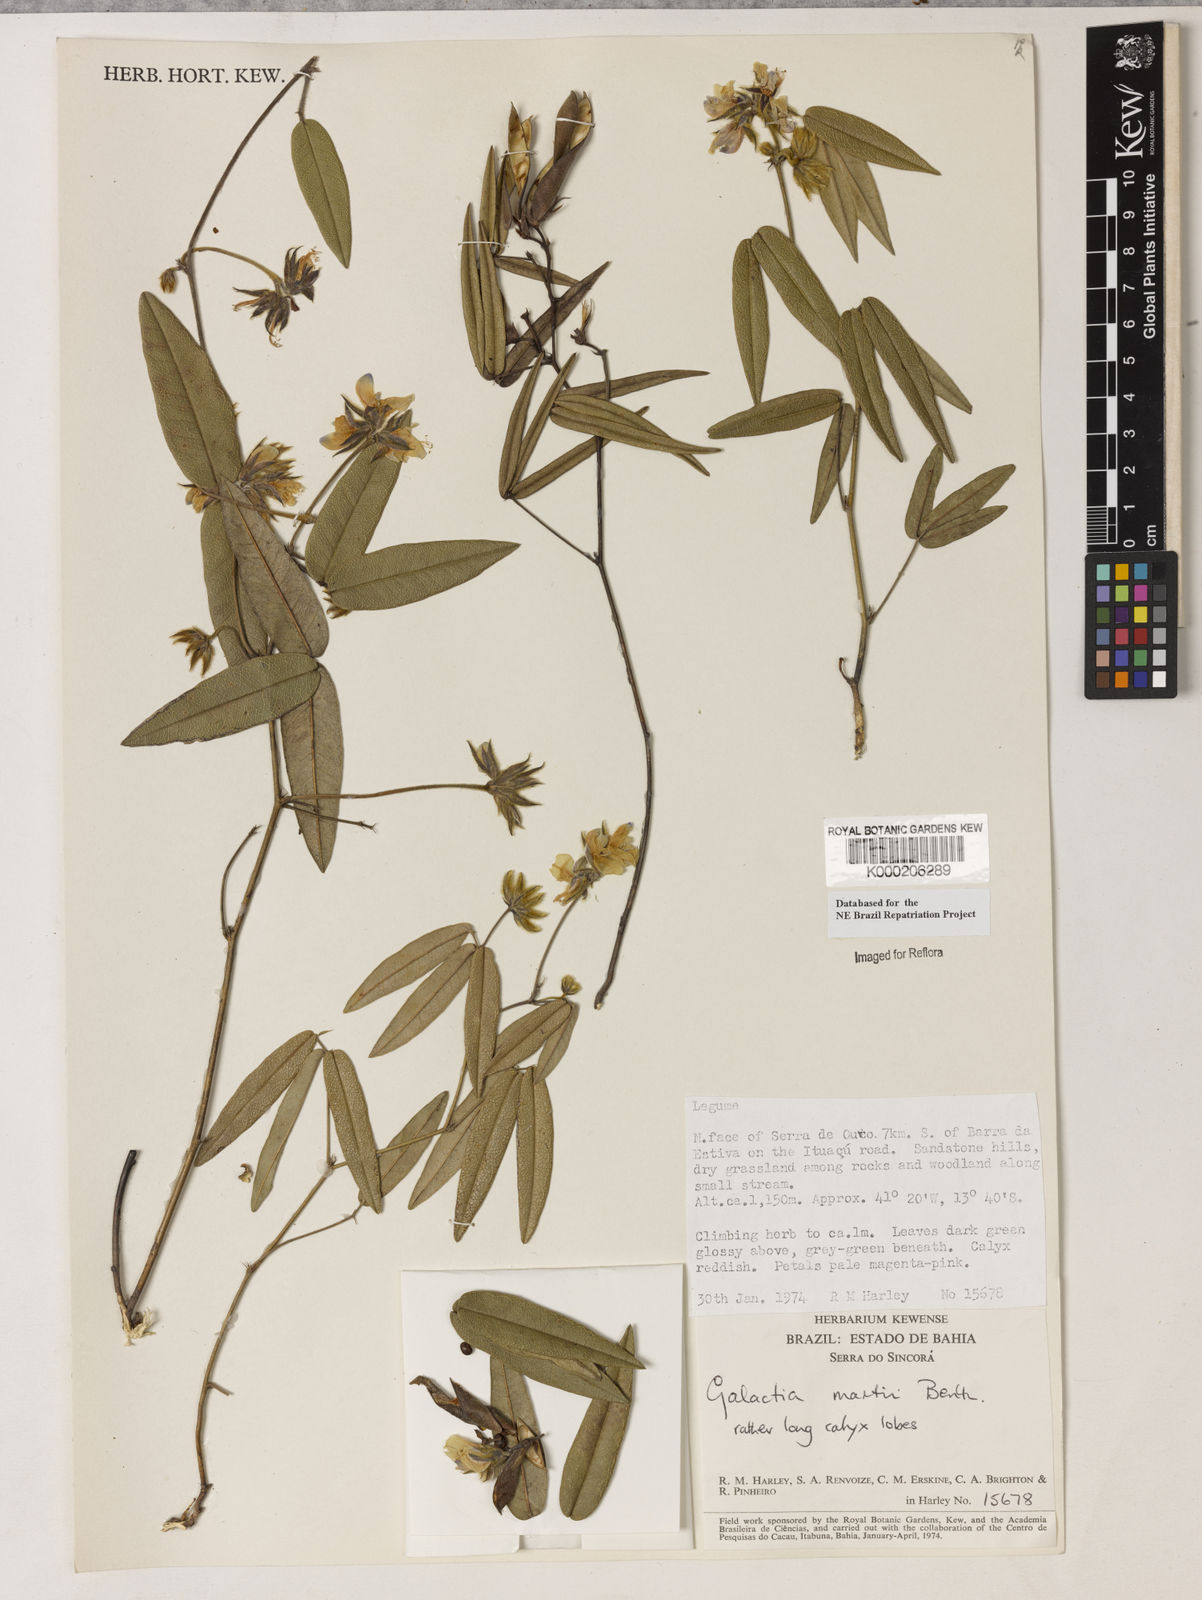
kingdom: Plantae
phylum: Tracheophyta
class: Magnoliopsida
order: Fabales
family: Fabaceae
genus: Betencourtia
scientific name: Betencourtia martii
